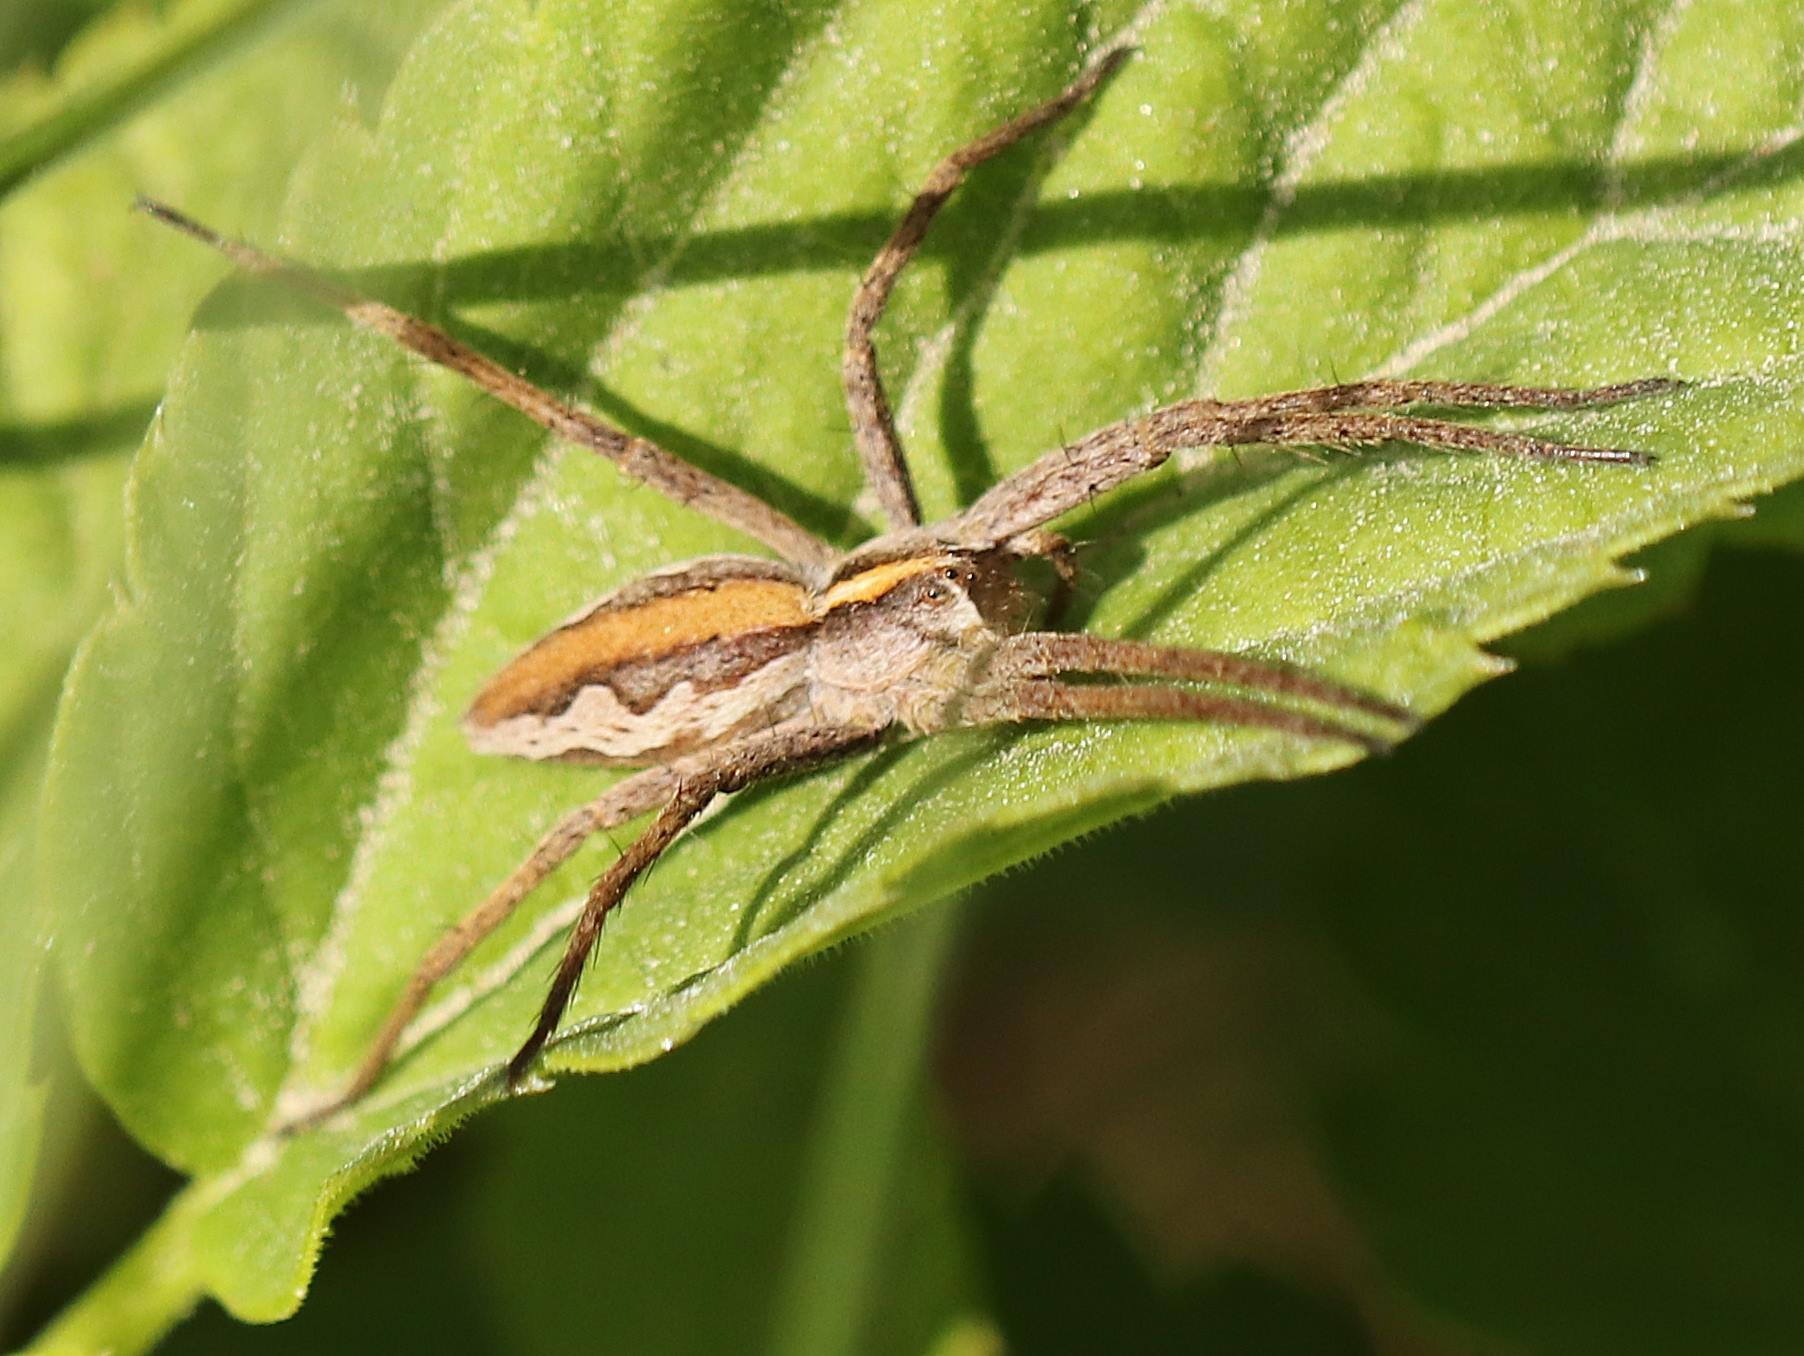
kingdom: Animalia
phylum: Arthropoda
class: Arachnida
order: Araneae
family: Pisauridae
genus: Pisaura
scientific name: Pisaura mirabilis
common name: Almindelig rovedderkop
